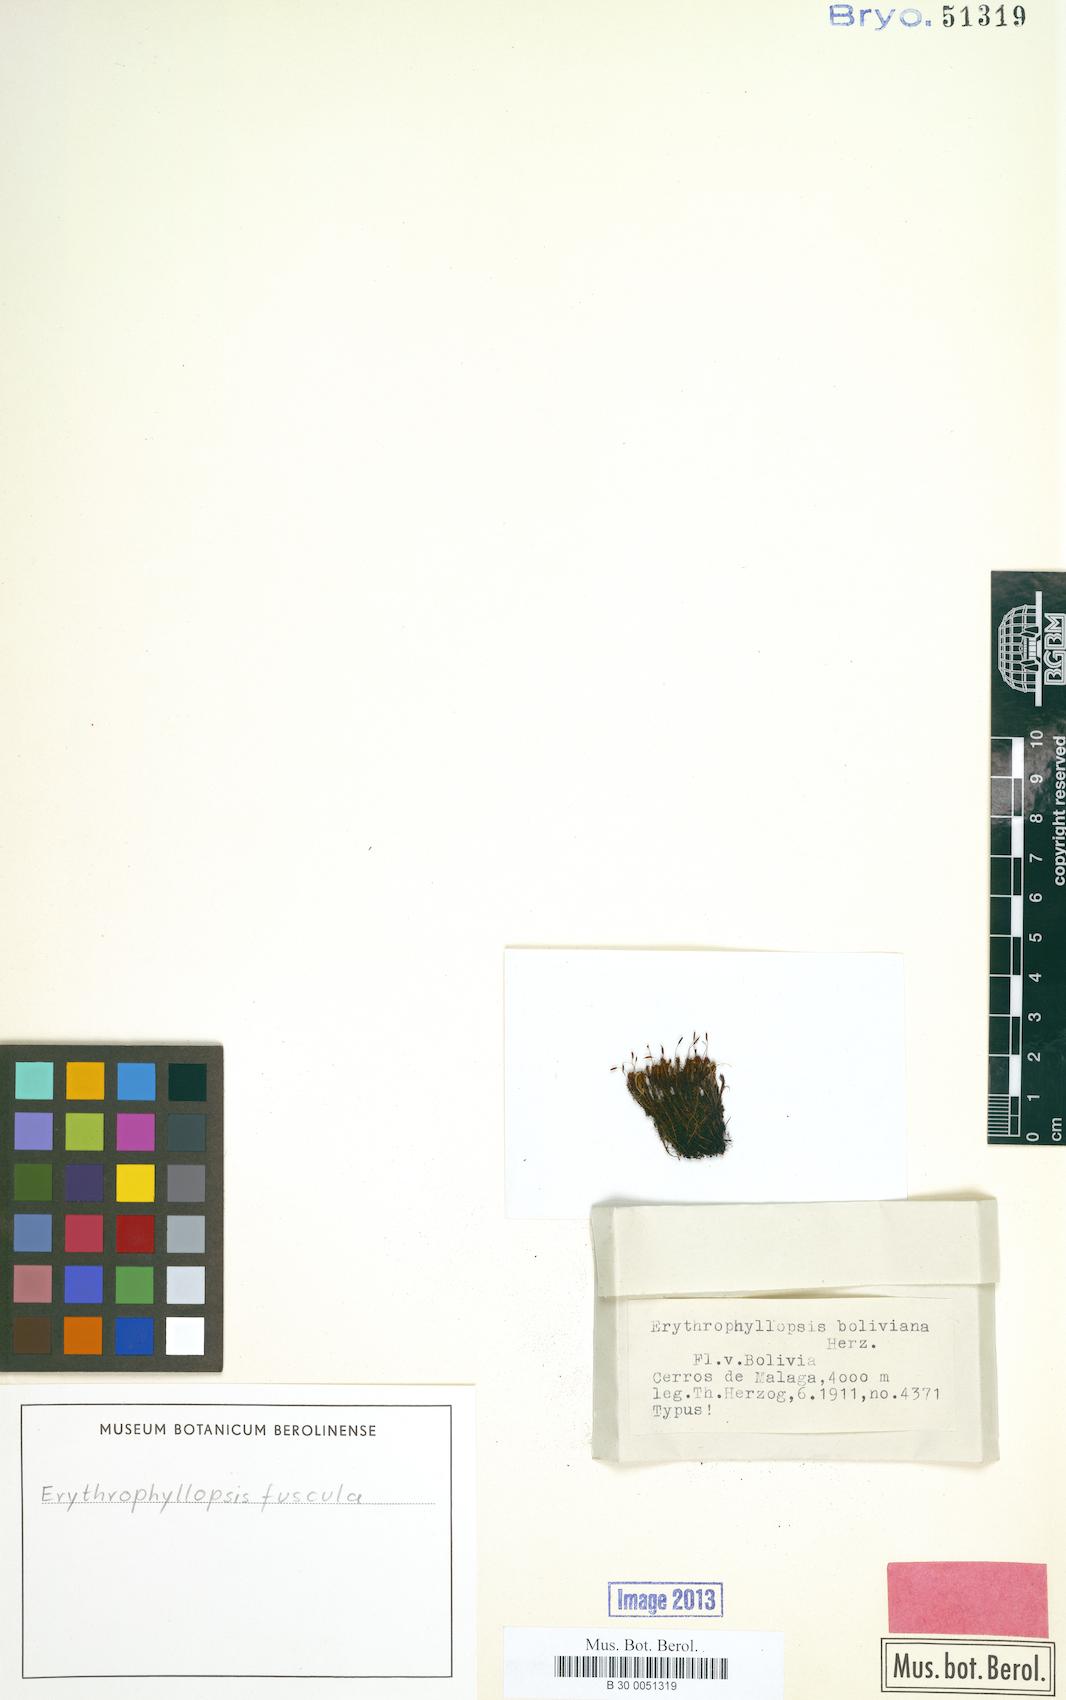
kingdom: Plantae
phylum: Bryophyta
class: Bryopsida
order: Pottiales
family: Pottiaceae
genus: Erythrophyllopsis
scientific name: Erythrophyllopsis andina
